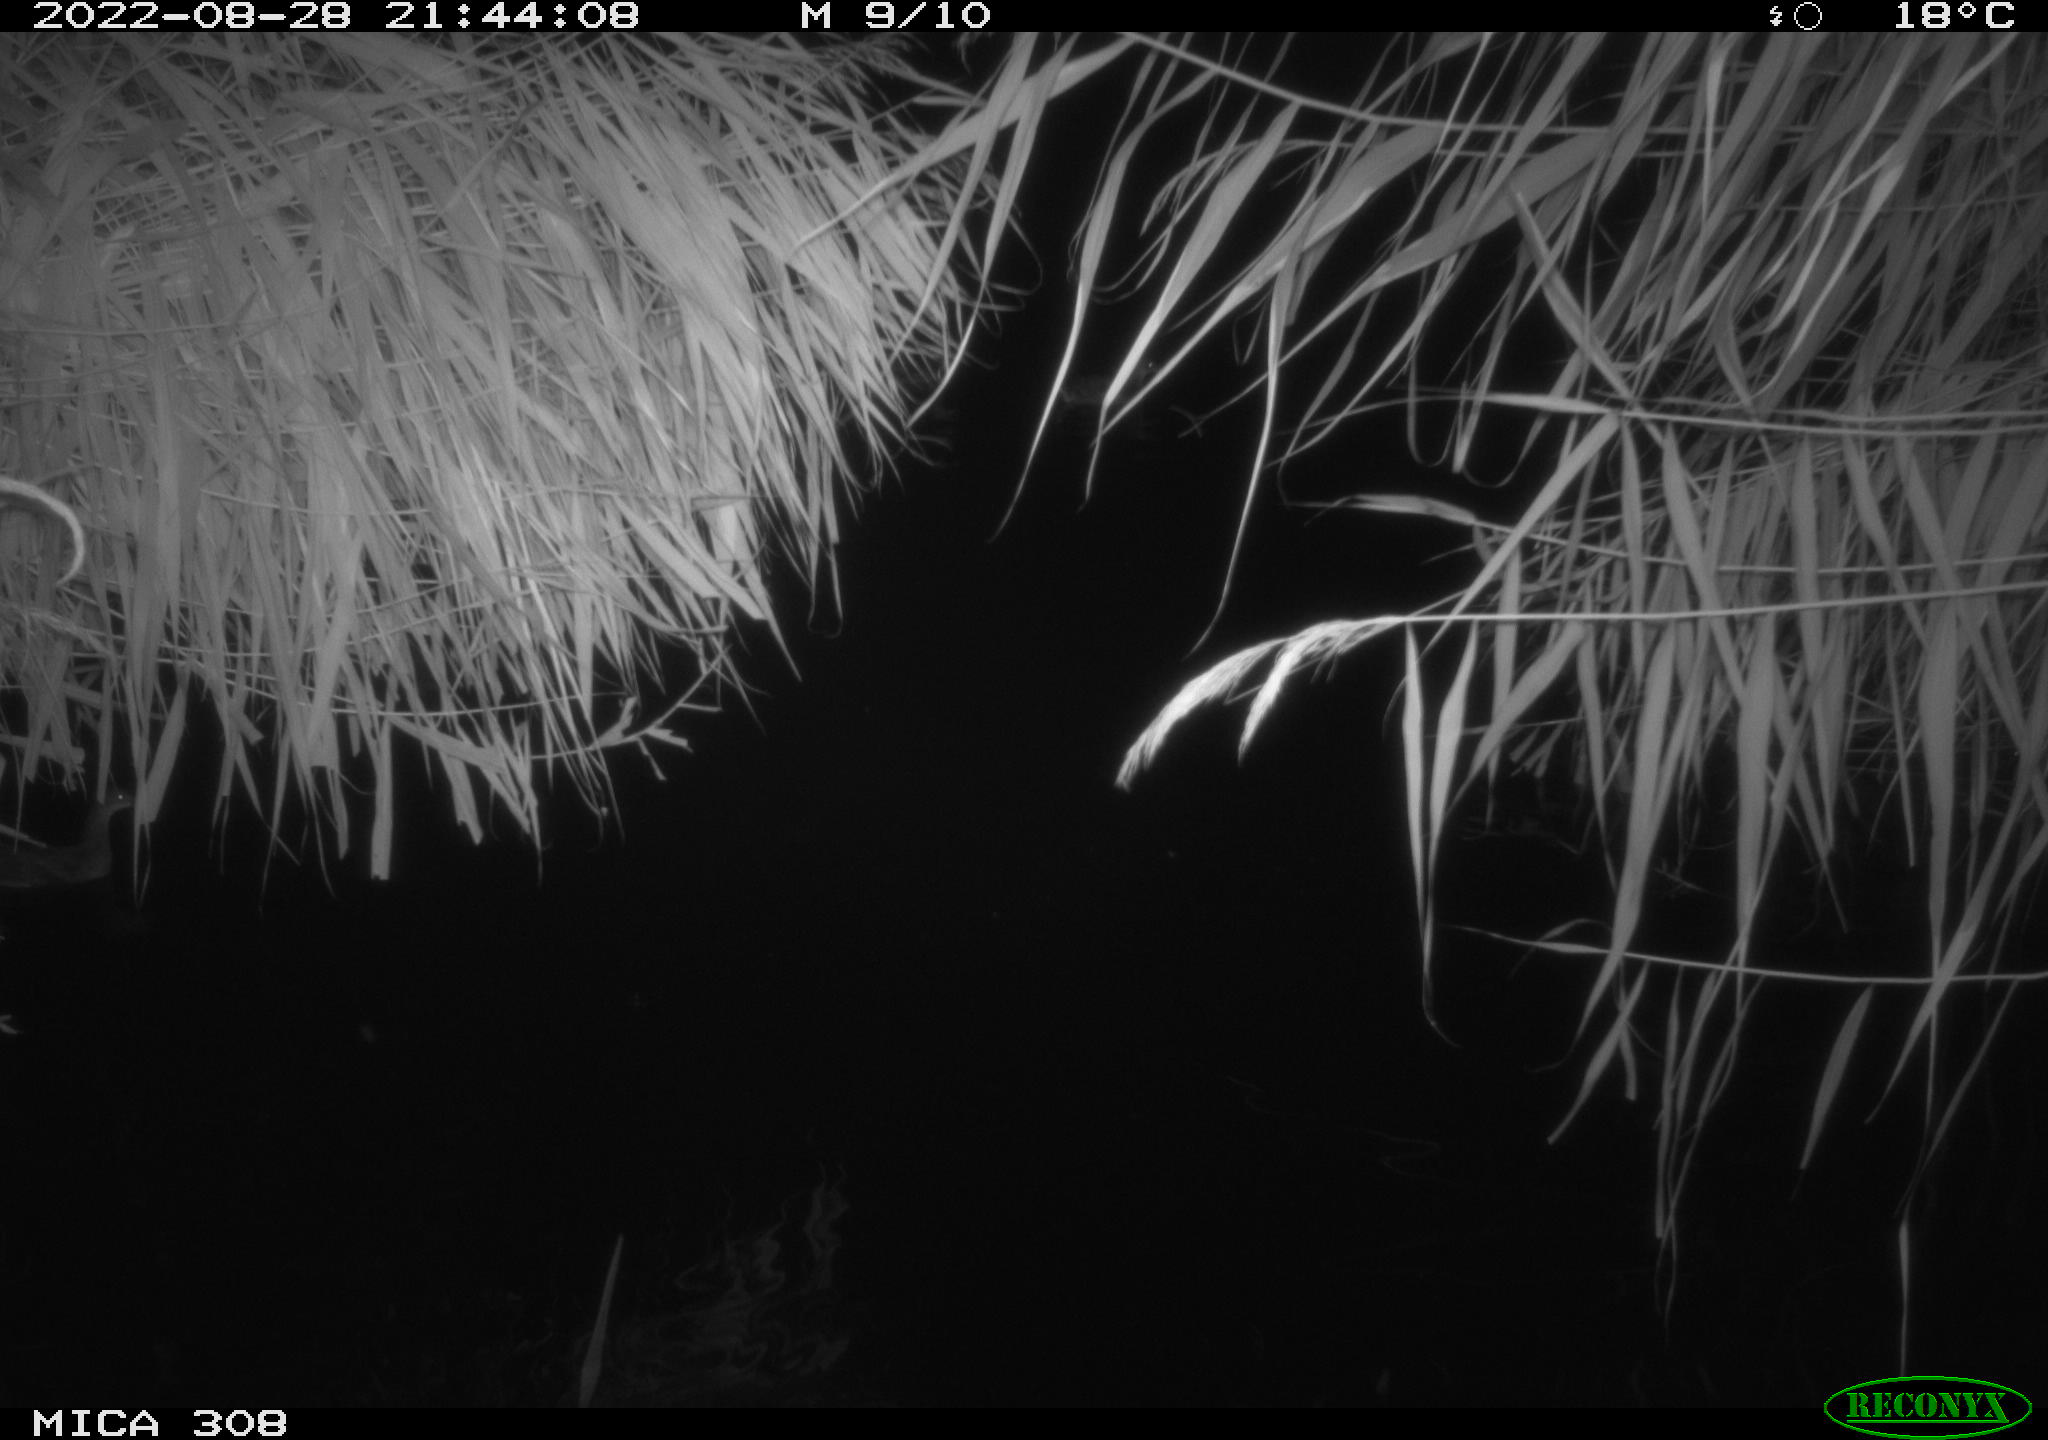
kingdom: Animalia
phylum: Chordata
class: Mammalia
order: Rodentia
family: Cricetidae
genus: Ondatra
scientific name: Ondatra zibethicus
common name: Muskrat
